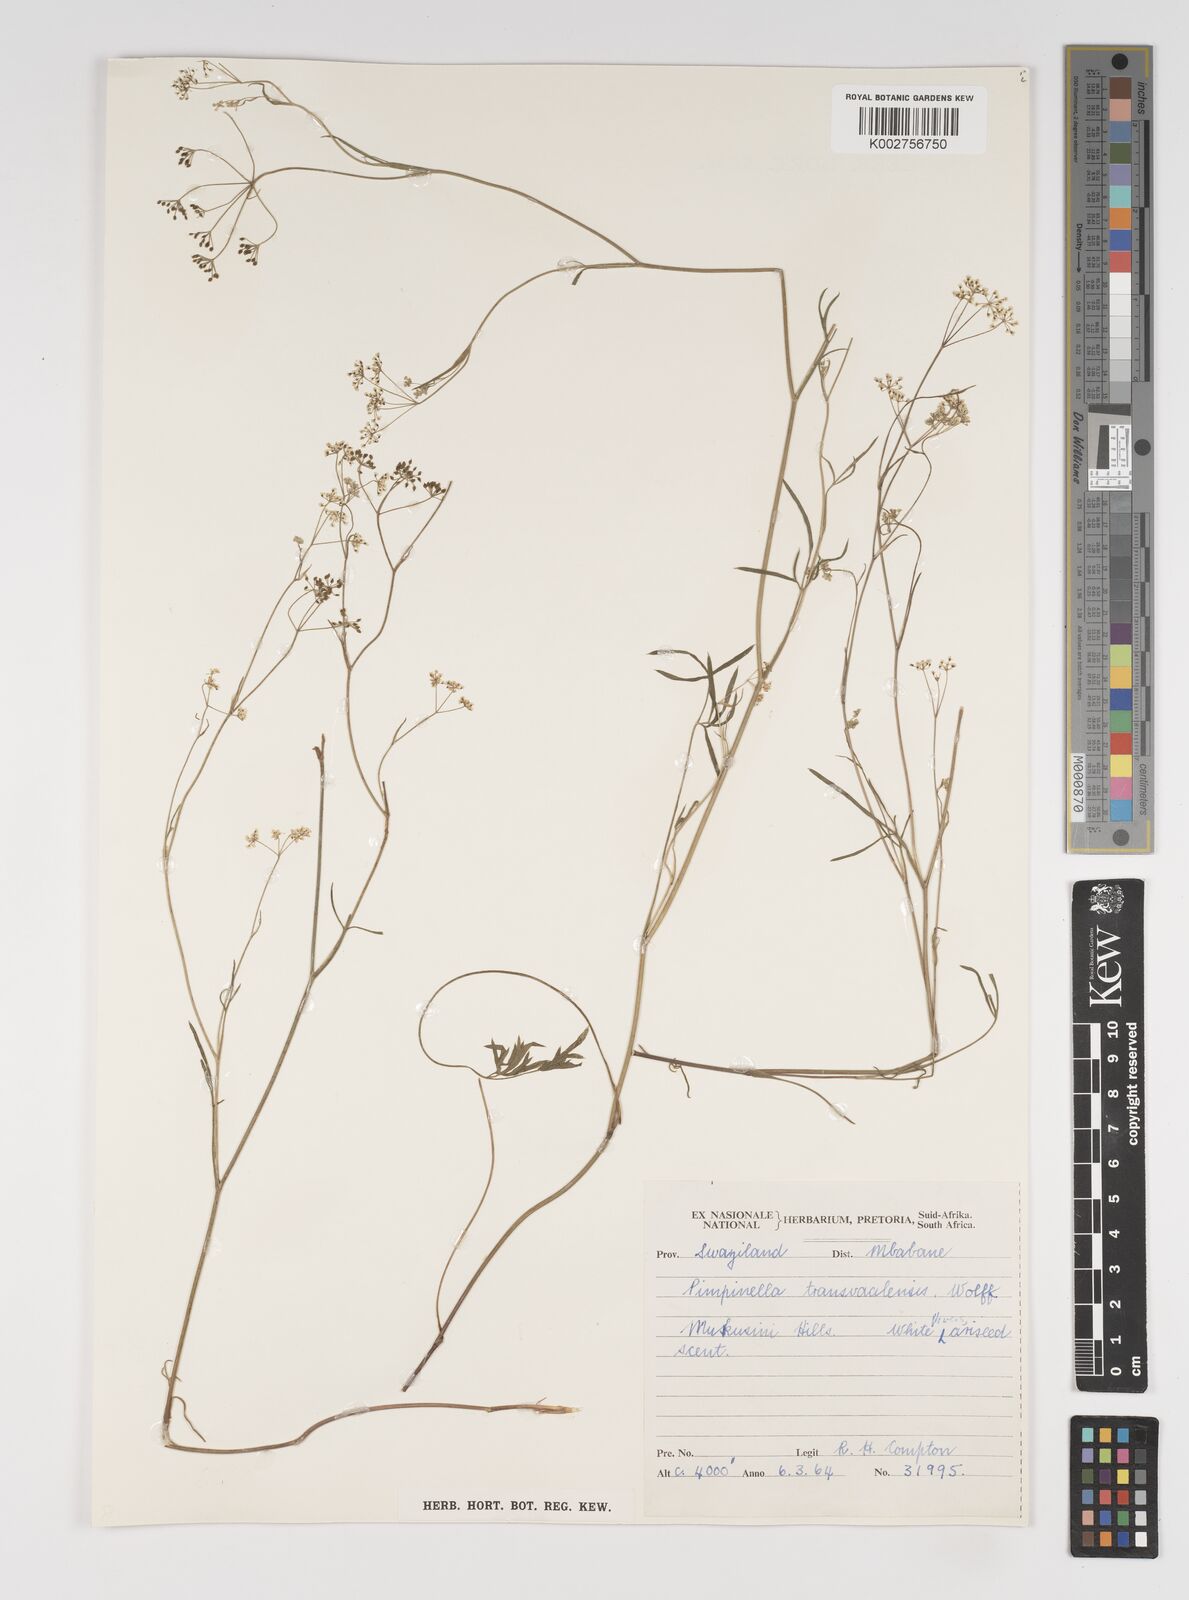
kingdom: Plantae
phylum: Tracheophyta
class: Magnoliopsida
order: Apiales
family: Apiaceae
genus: Pimpinella
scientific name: Pimpinella transvaalensis
